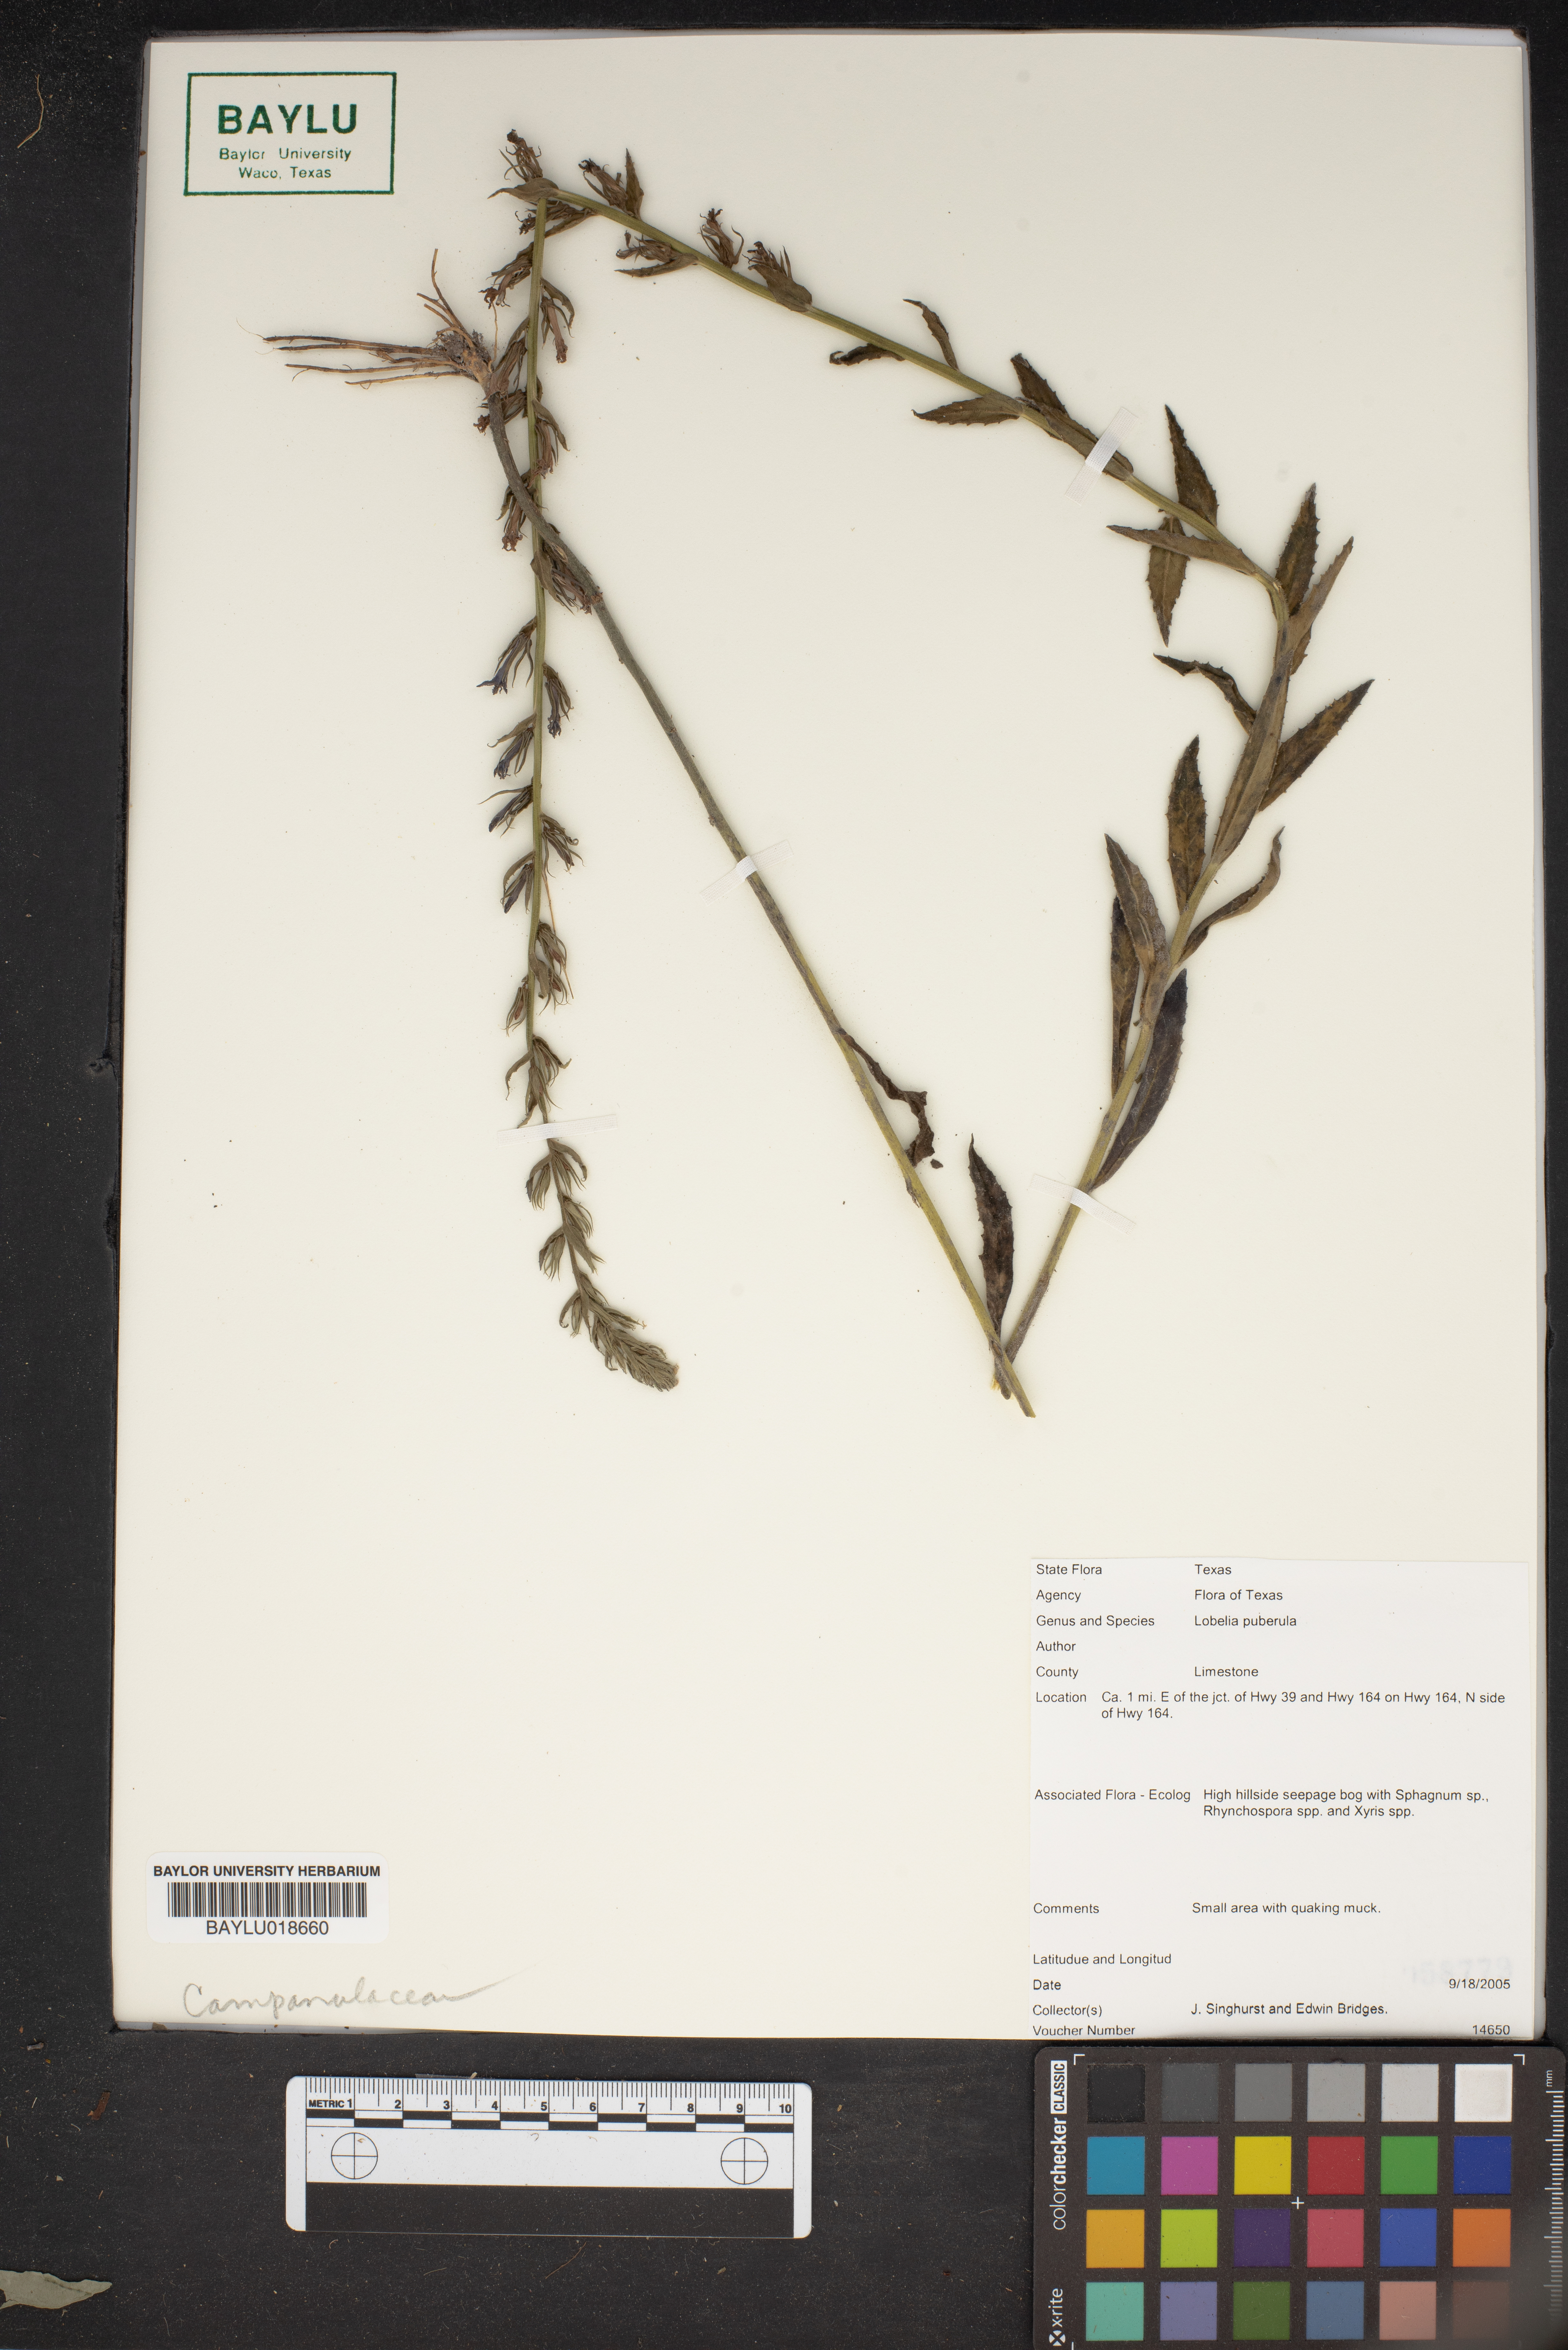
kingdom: Plantae
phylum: Tracheophyta
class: Magnoliopsida
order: Asterales
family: Campanulaceae
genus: Lobelia
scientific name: Lobelia puberula
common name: Purple dewdrop
